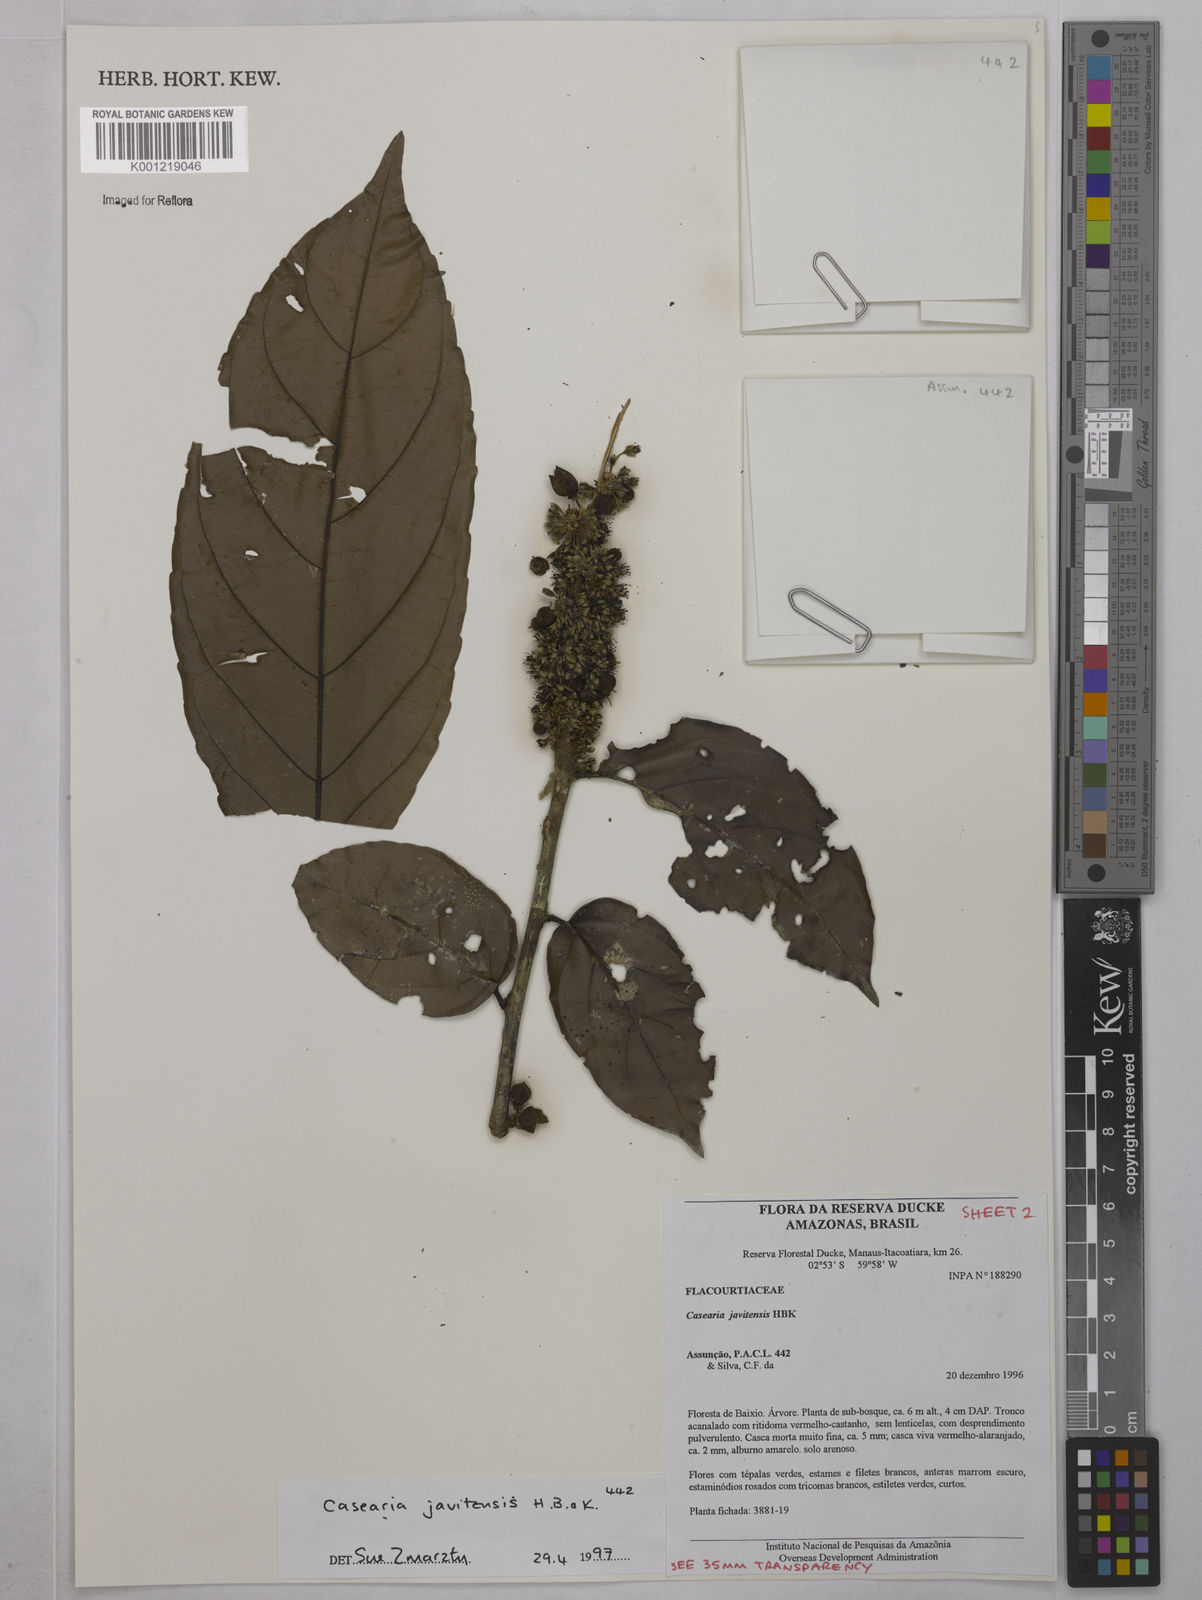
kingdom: Plantae
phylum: Tracheophyta
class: Magnoliopsida
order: Malpighiales
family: Salicaceae
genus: Piparea
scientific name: Piparea multiflora
